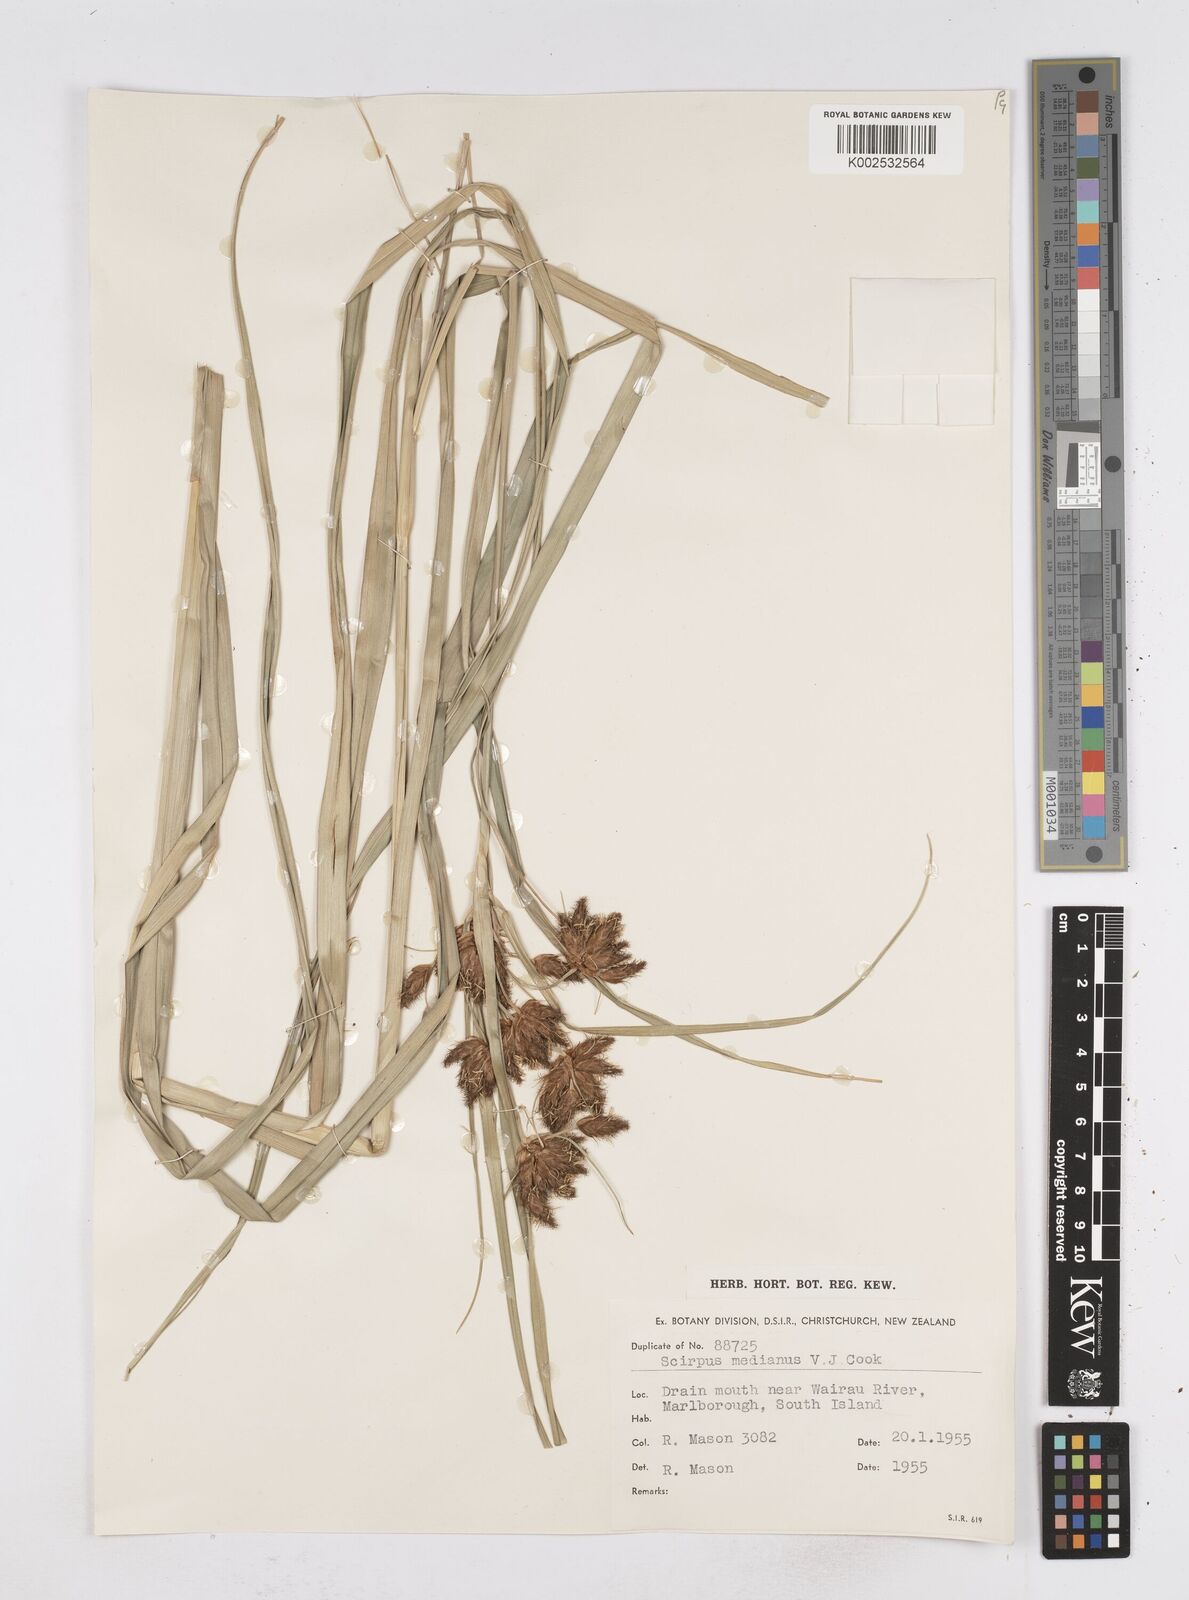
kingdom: Plantae
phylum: Tracheophyta
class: Liliopsida
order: Poales
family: Cyperaceae
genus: Bolboschoenus
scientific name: Bolboschoenus medianus
